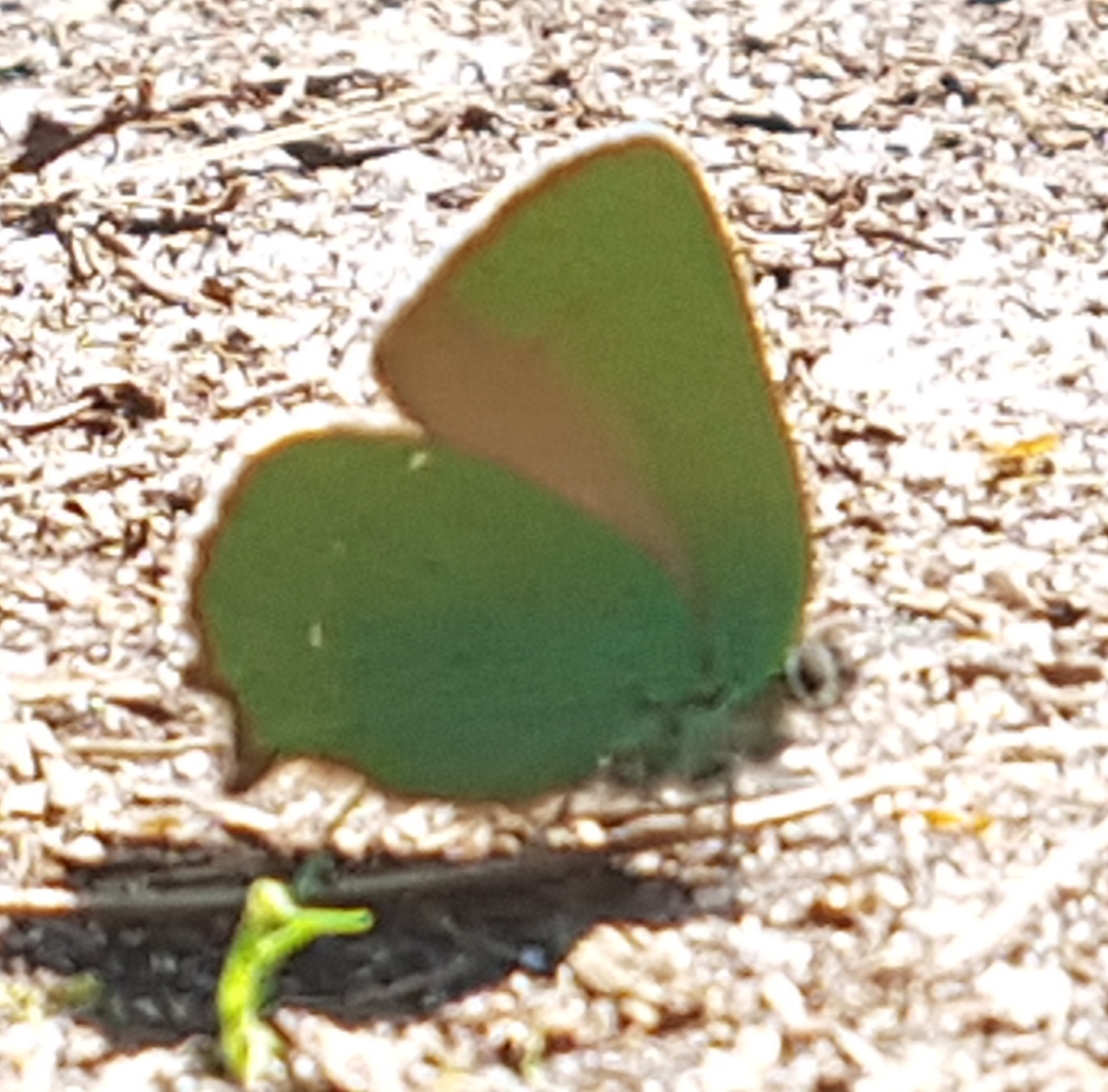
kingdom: Animalia
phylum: Arthropoda
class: Insecta
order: Lepidoptera
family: Lycaenidae
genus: Callophrys
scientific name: Callophrys rubi
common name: Grøn busksommerfugl
